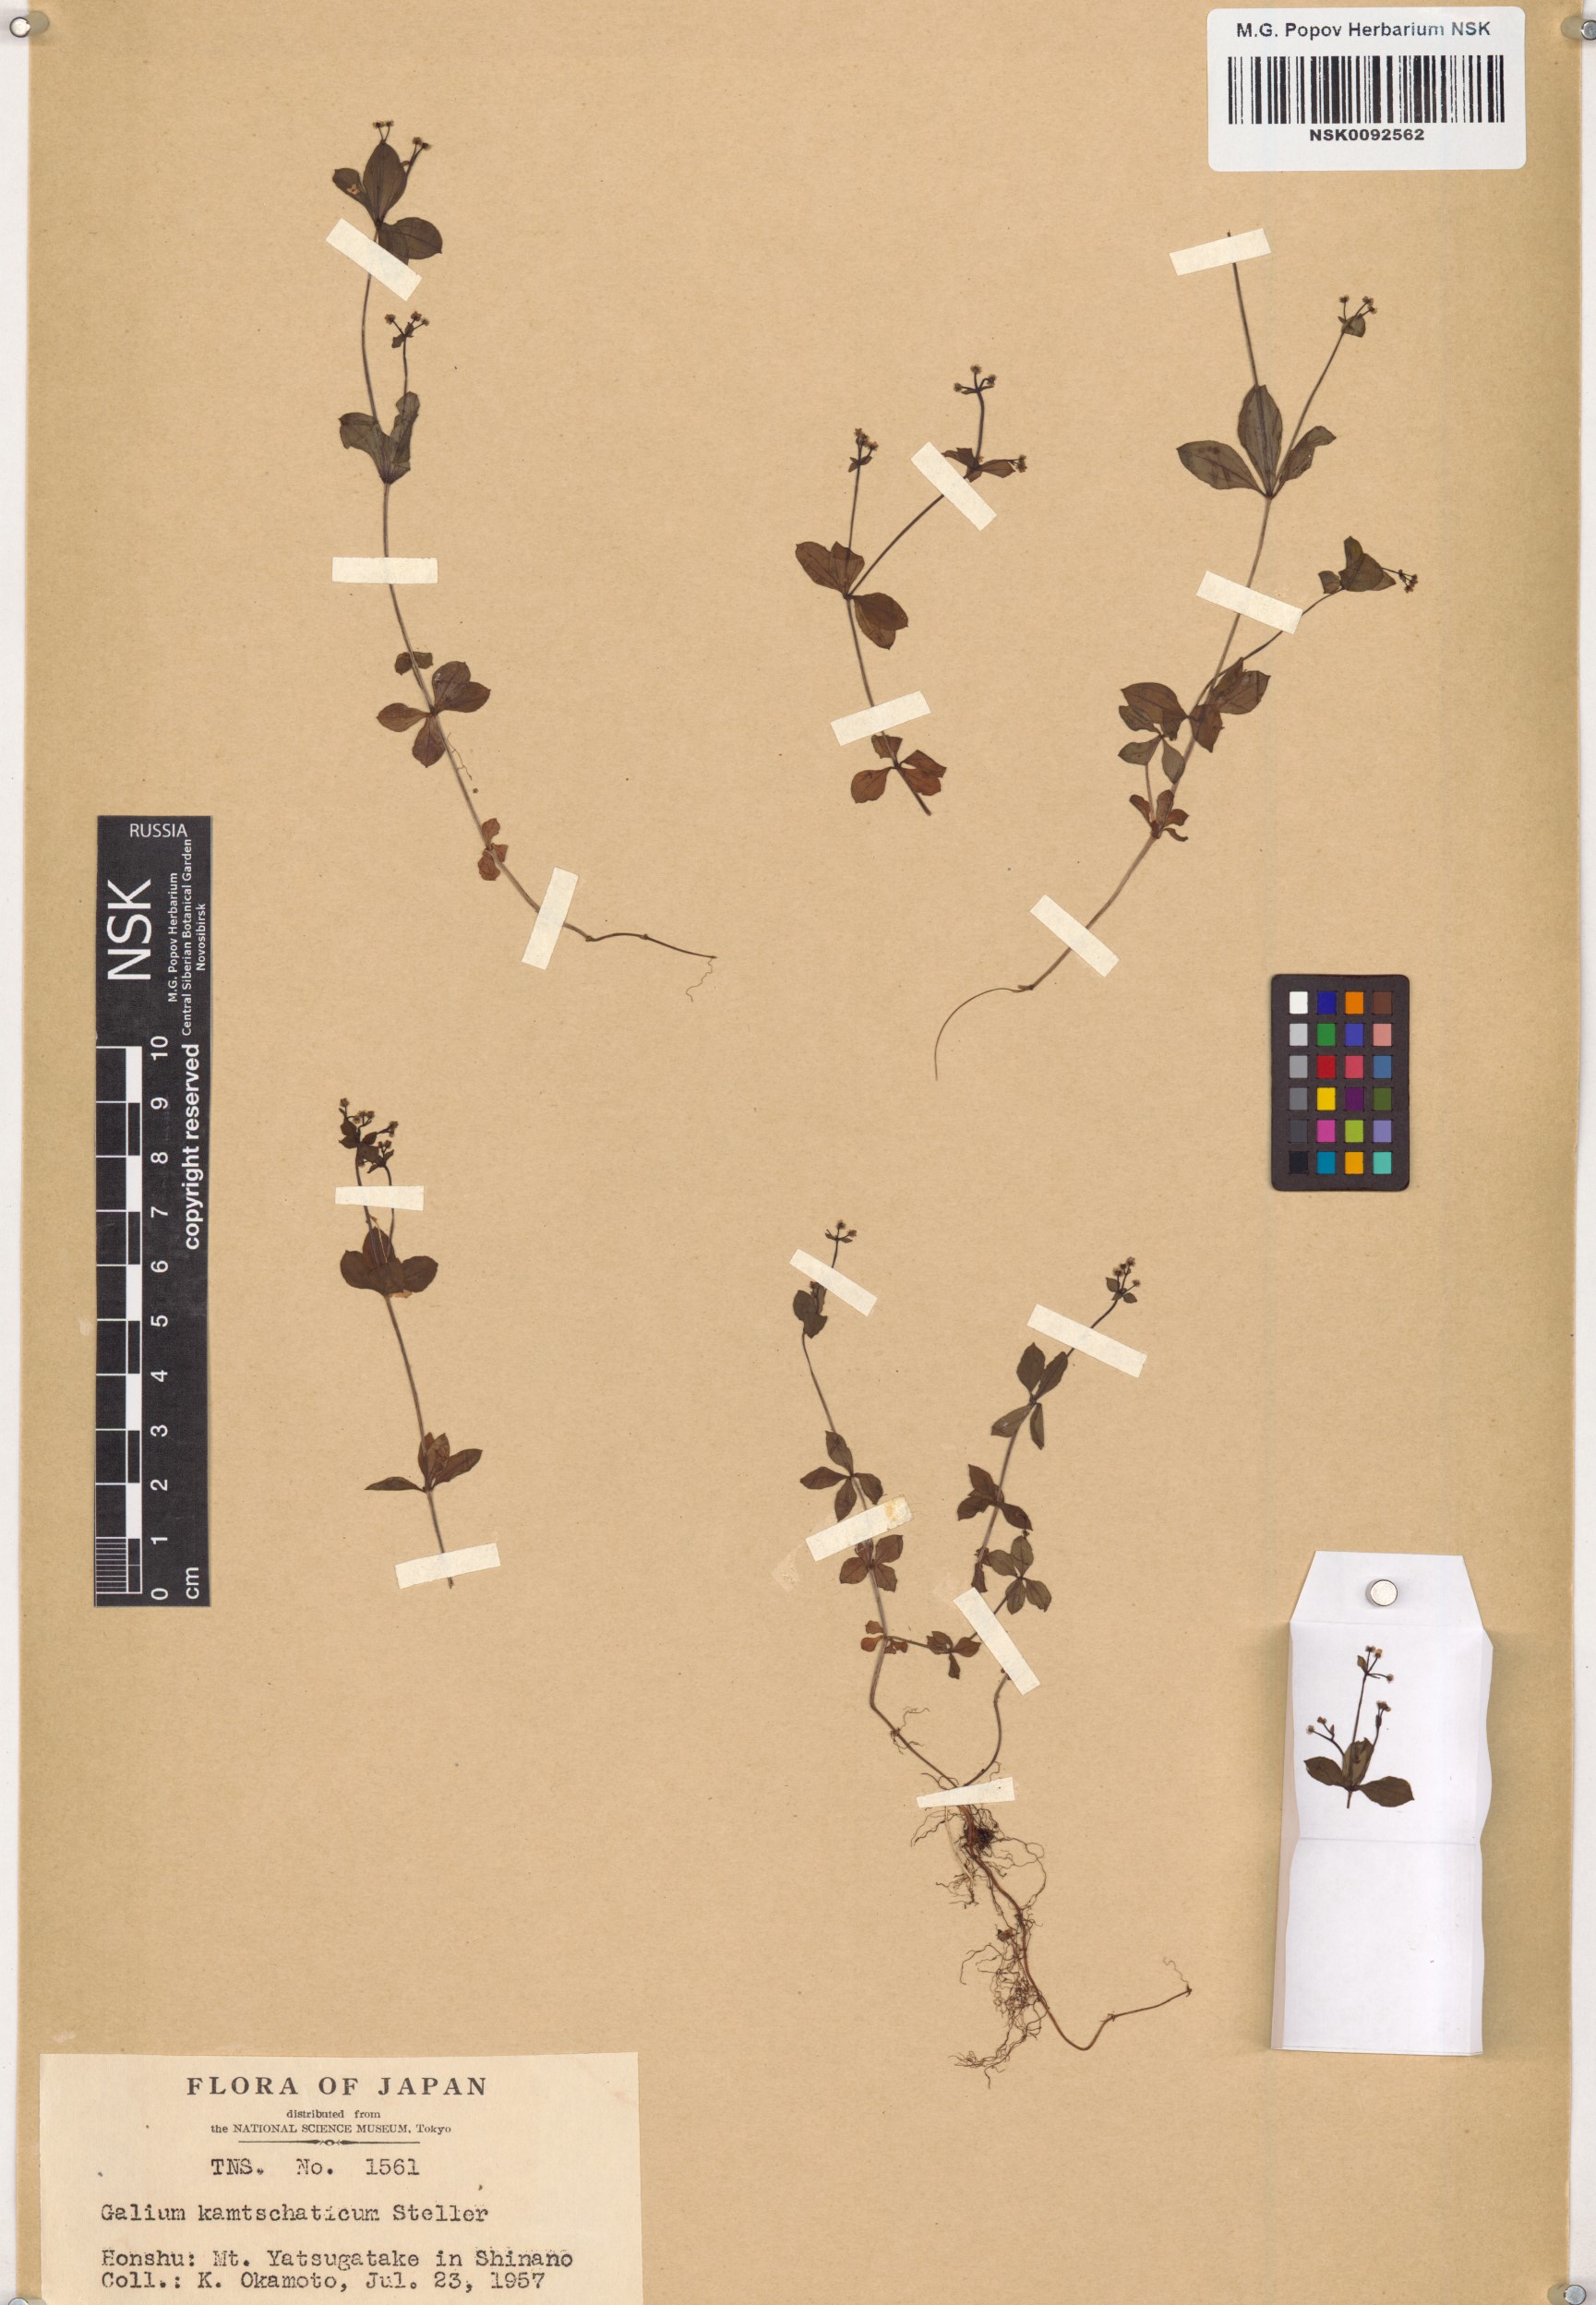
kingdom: Plantae
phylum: Tracheophyta
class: Magnoliopsida
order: Gentianales
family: Rubiaceae
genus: Galium
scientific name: Galium kamtschaticum
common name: Boreal bedstraw
